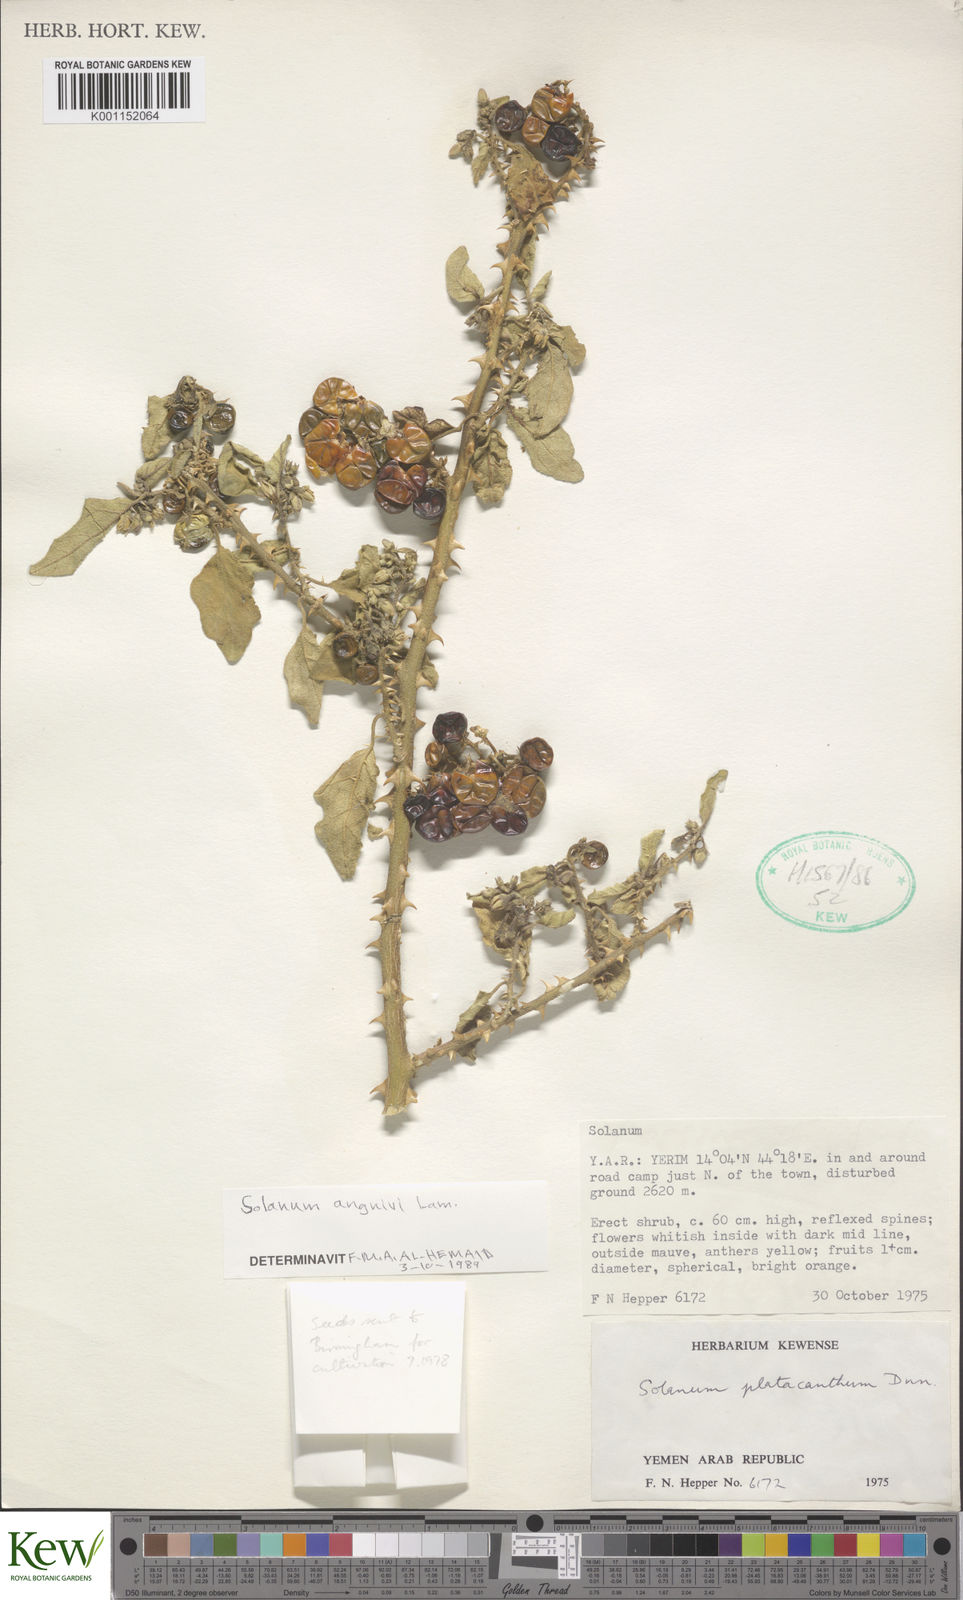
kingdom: Plantae
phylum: Tracheophyta
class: Magnoliopsida
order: Solanales
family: Solanaceae
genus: Solanum
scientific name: Solanum anguivi
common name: Forest bitterberry
